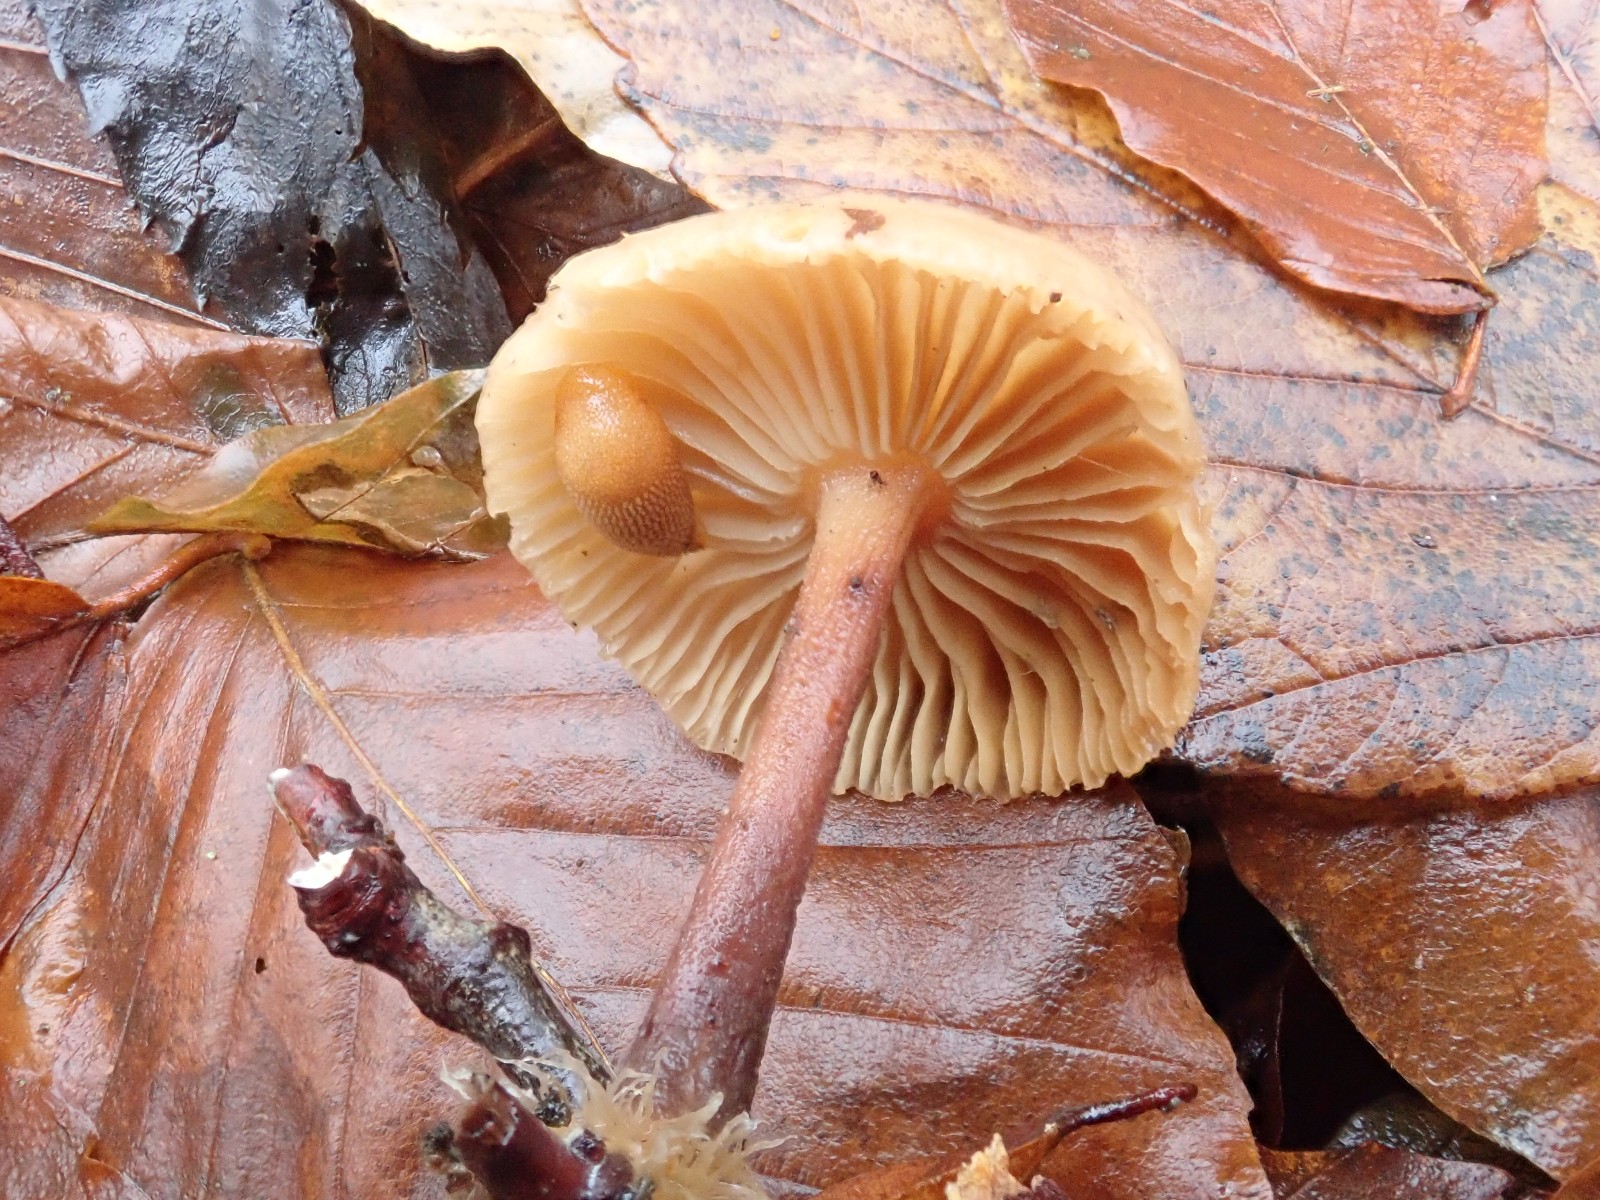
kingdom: Fungi
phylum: Basidiomycota
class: Agaricomycetes
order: Agaricales
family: Omphalotaceae
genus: Gymnopus
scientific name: Gymnopus
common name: fladhat
